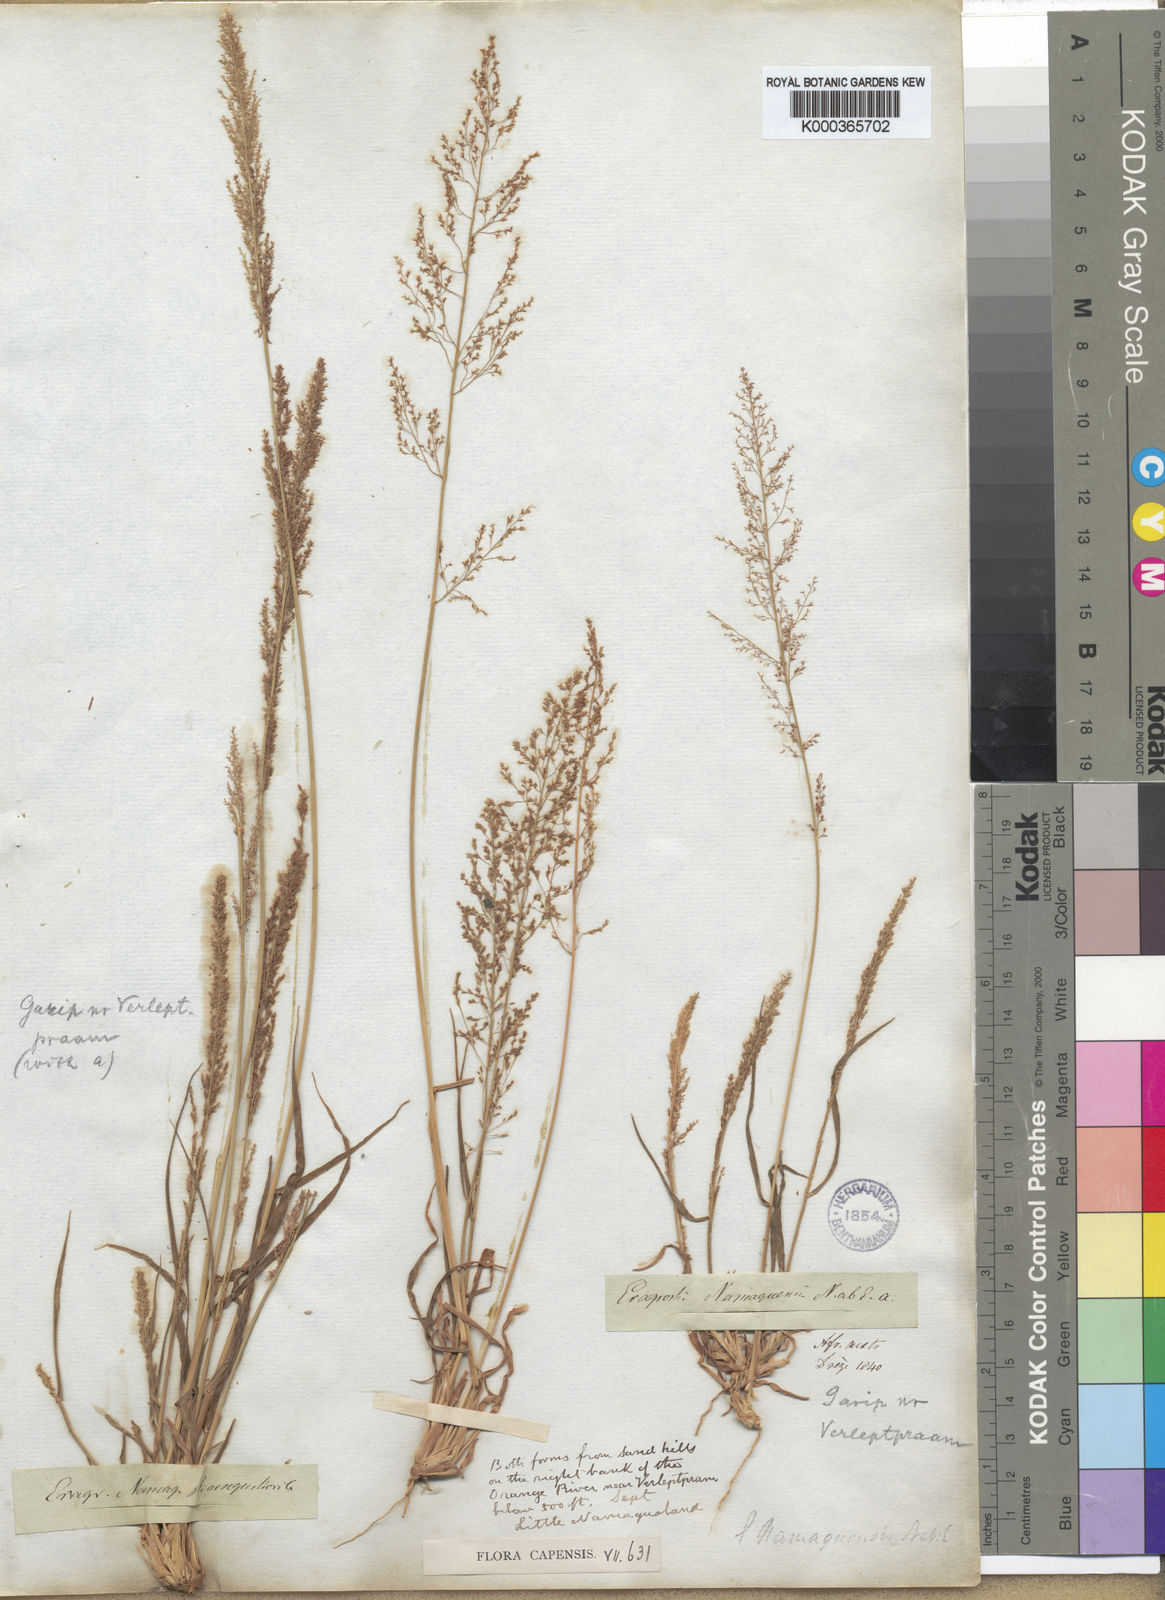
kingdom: Plantae
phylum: Tracheophyta
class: Liliopsida
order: Poales
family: Poaceae
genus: Eragrostis
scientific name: Eragrostis japonica
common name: Pond lovegrass
